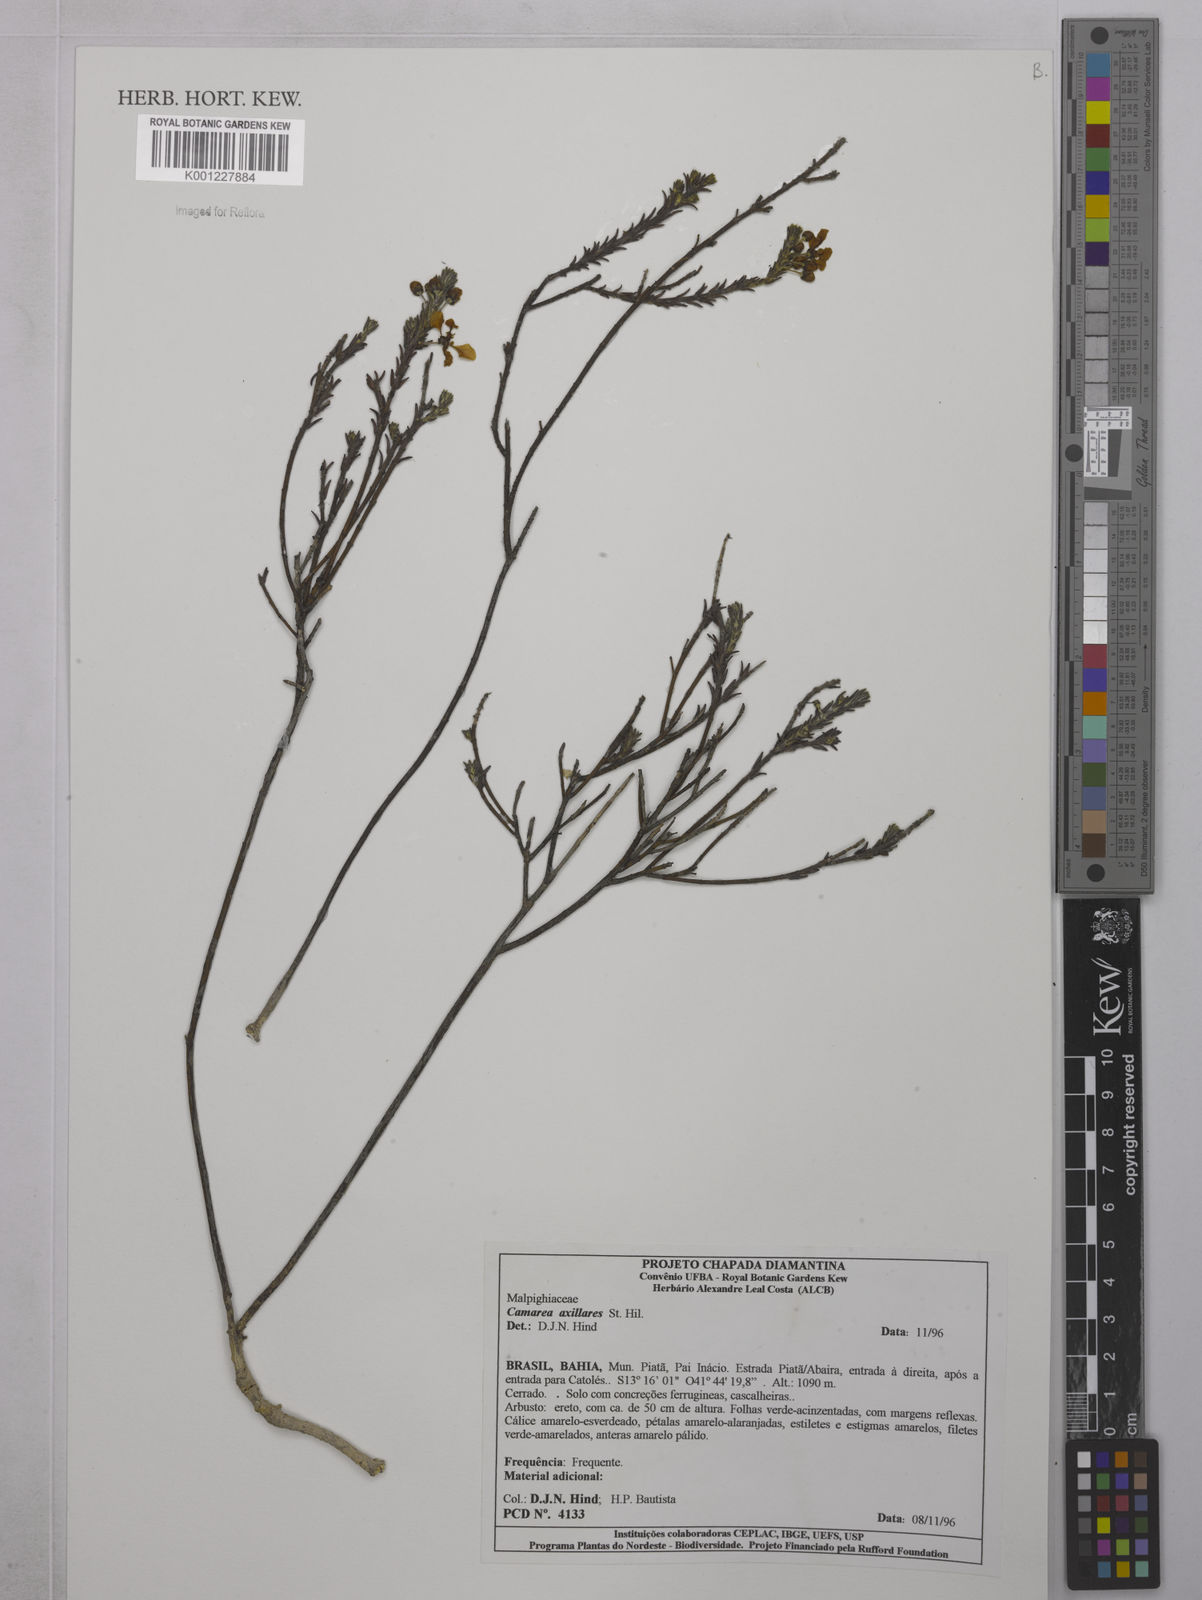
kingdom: Plantae
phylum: Tracheophyta
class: Magnoliopsida
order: Malpighiales
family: Malpighiaceae
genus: Camarea
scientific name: Camarea axillaris
